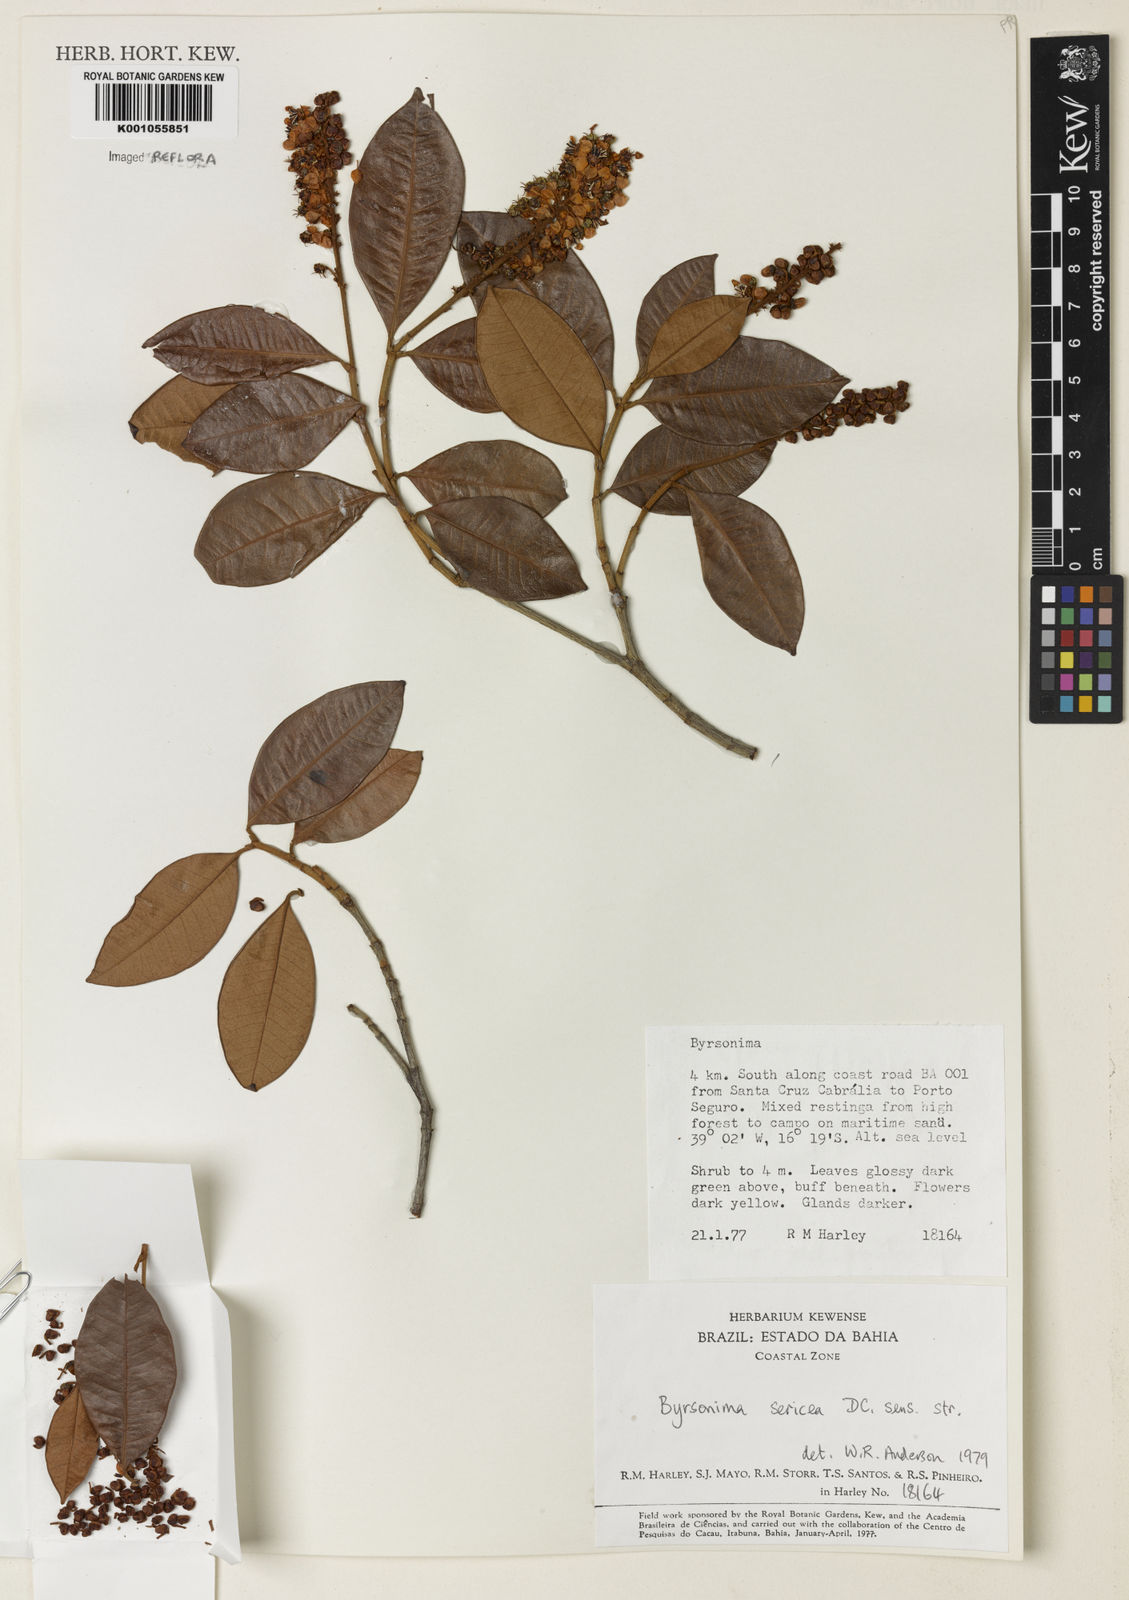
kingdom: Plantae
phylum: Tracheophyta
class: Magnoliopsida
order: Malpighiales
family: Malpighiaceae
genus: Byrsonima
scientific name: Byrsonima sericea
